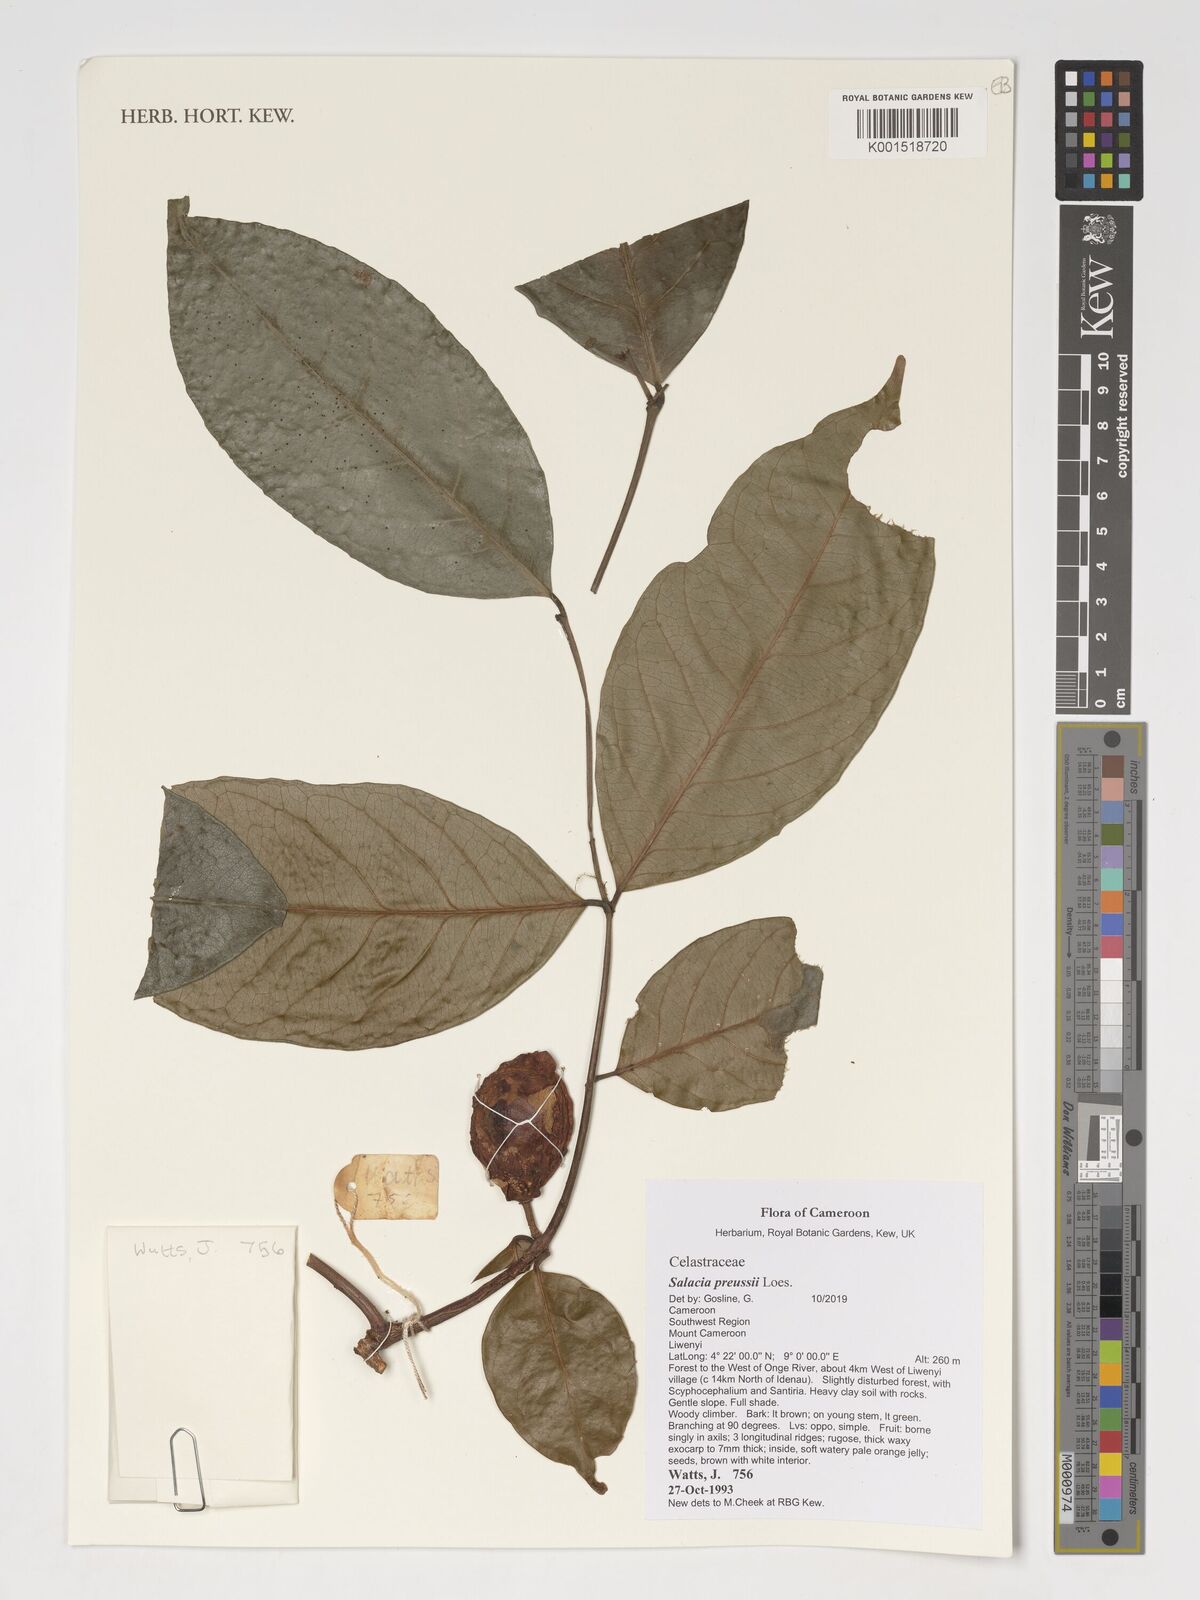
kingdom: Plantae
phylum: Tracheophyta
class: Magnoliopsida
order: Celastrales
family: Celastraceae
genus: Salacia
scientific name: Salacia preussii
